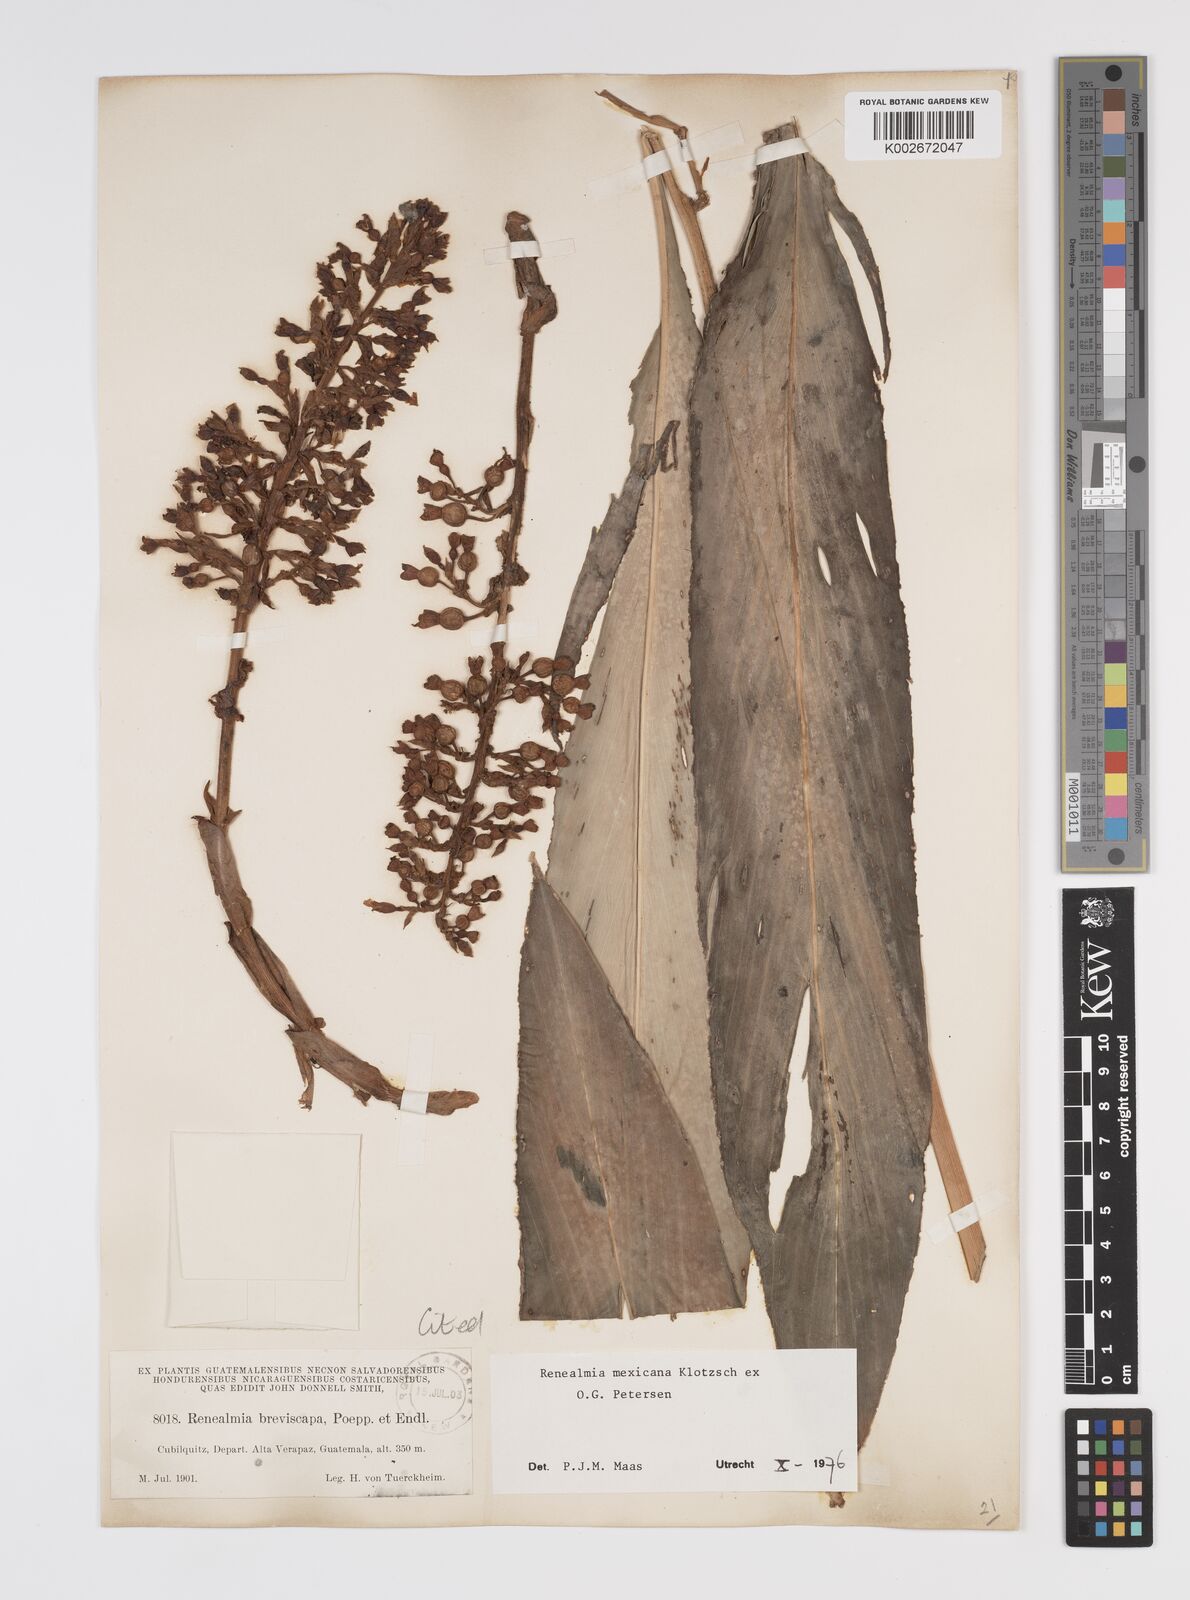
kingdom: Plantae
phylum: Tracheophyta
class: Liliopsida
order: Zingiberales
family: Zingiberaceae
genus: Renealmia
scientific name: Renealmia mexicana
